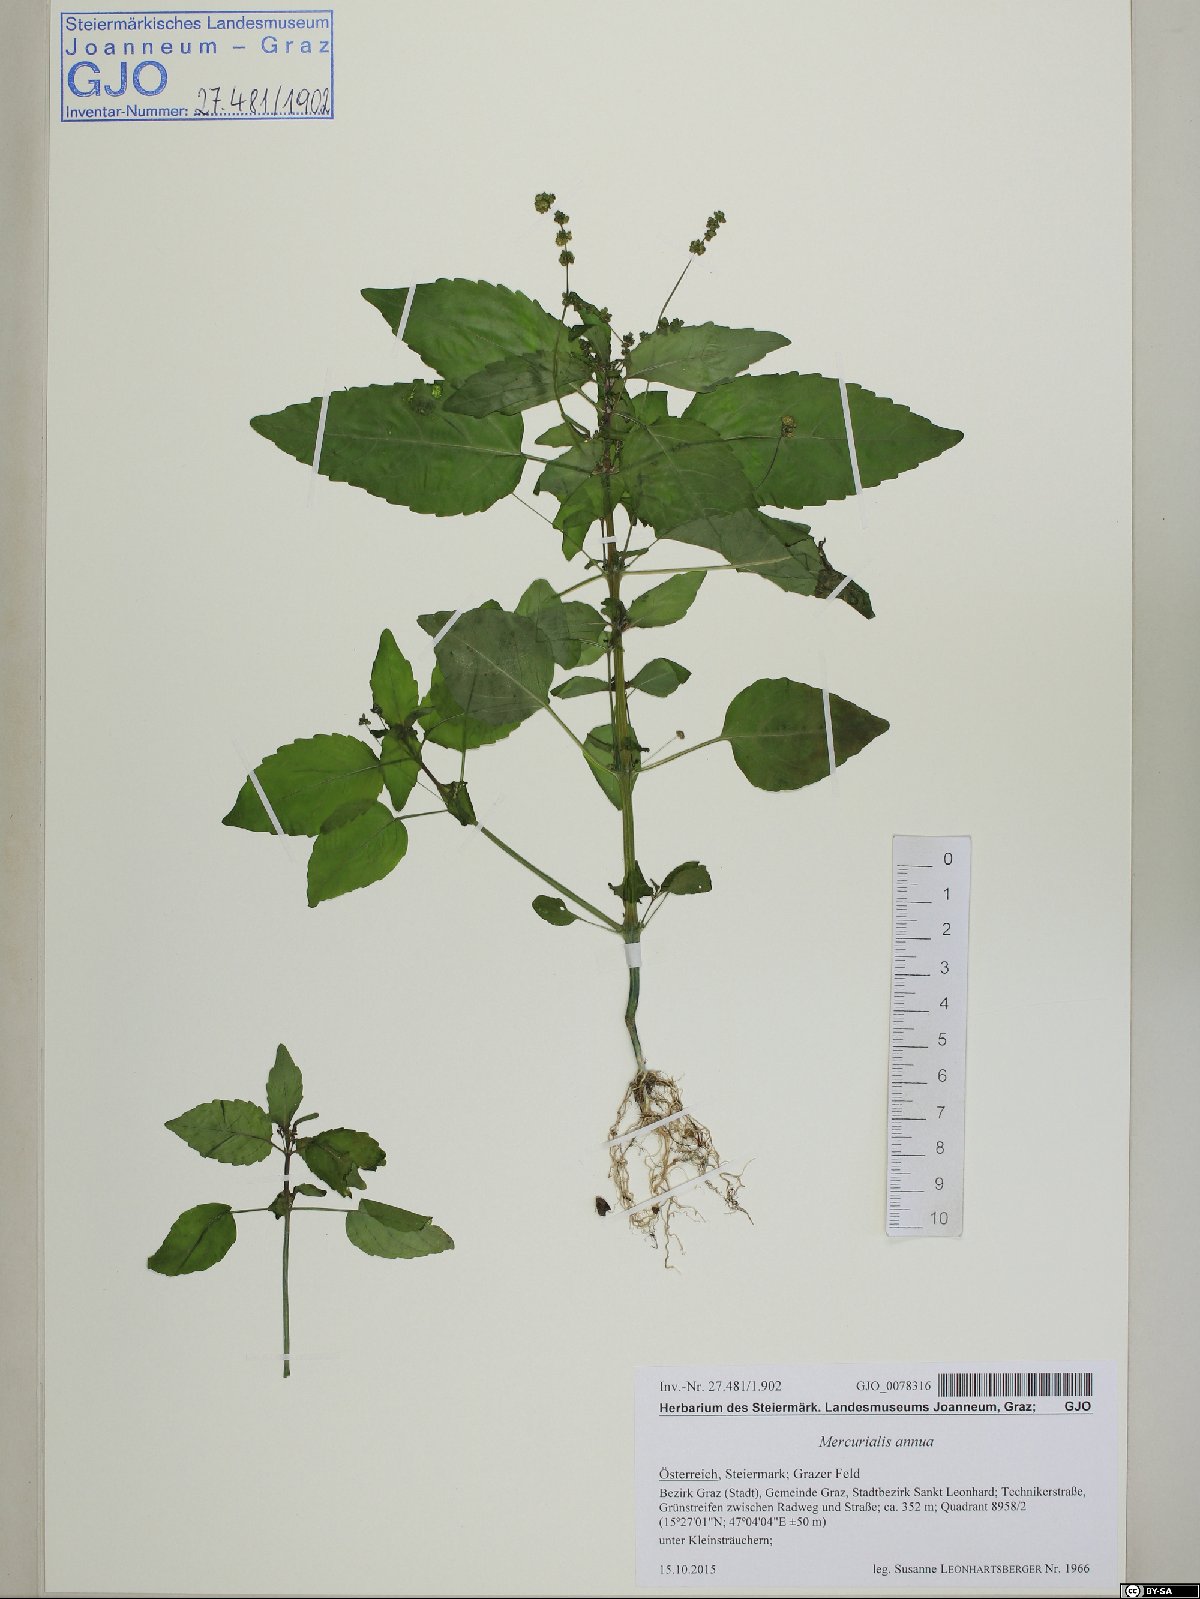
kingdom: Plantae
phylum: Tracheophyta
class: Magnoliopsida
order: Malpighiales
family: Euphorbiaceae
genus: Mercurialis
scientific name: Mercurialis annua
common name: Annual mercury
